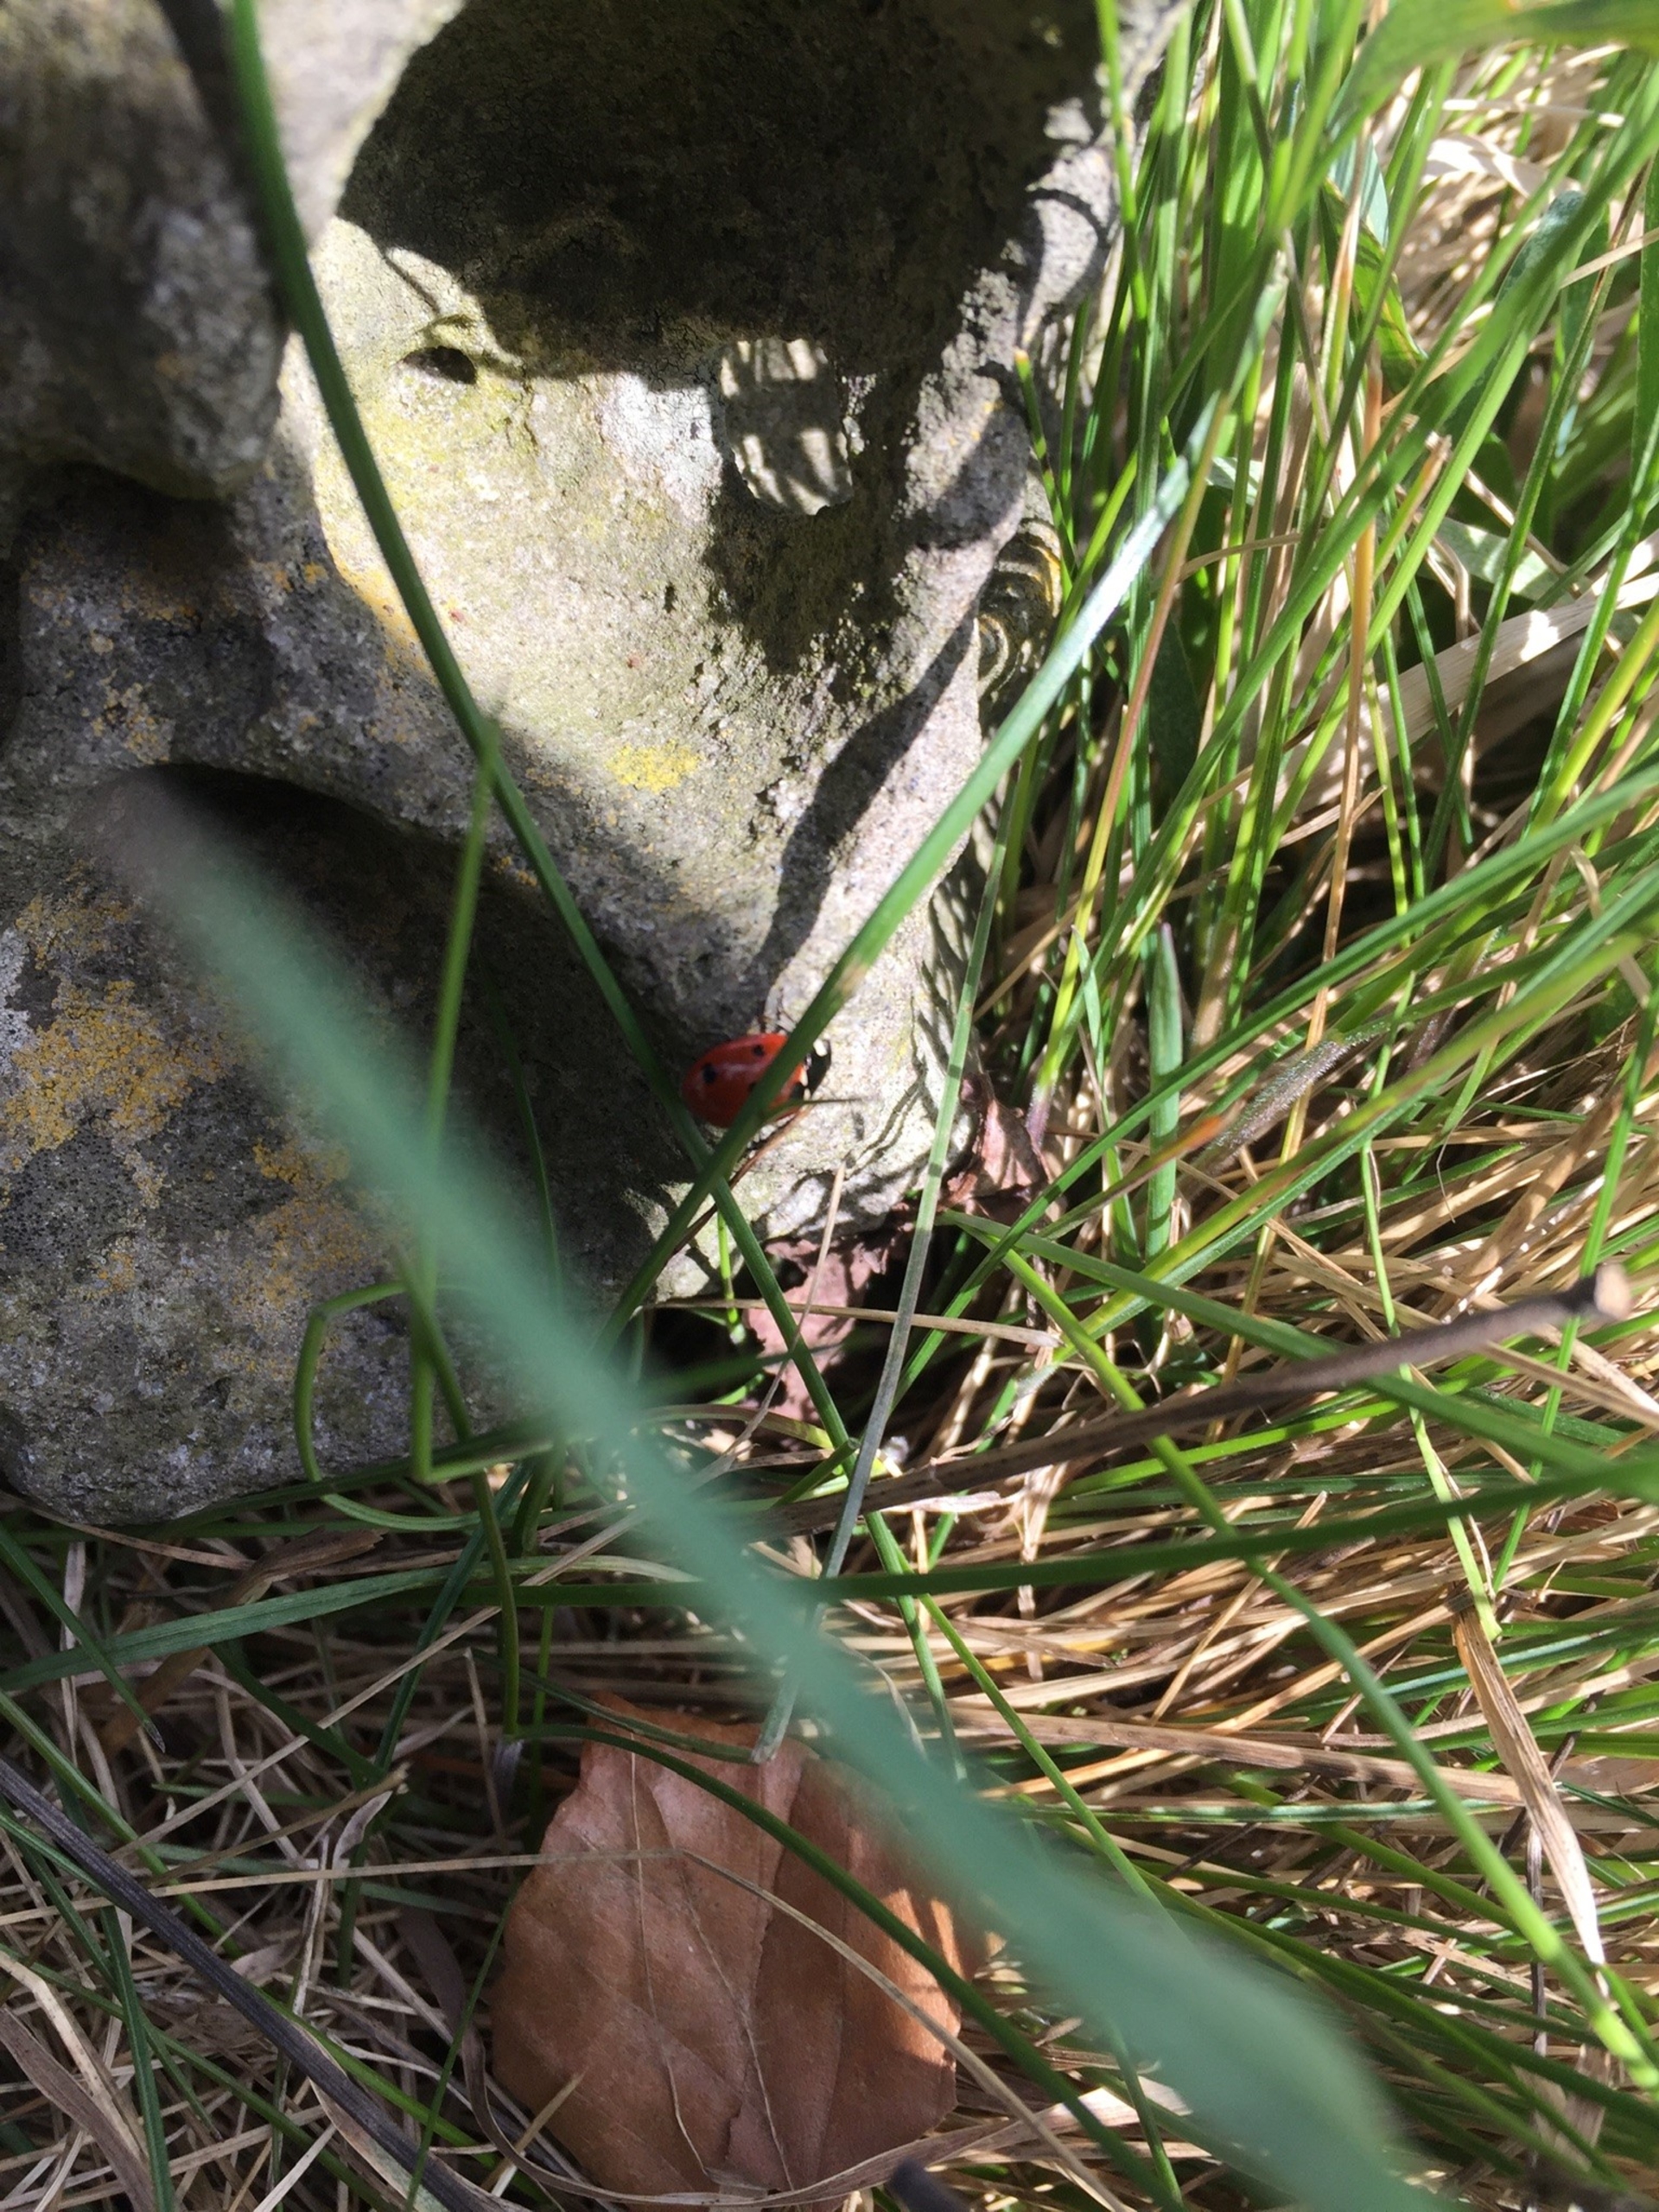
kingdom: Animalia
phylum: Arthropoda
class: Insecta
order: Coleoptera
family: Coccinellidae
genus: Coccinella
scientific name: Coccinella septempunctata
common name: Syvplettet mariehøne
